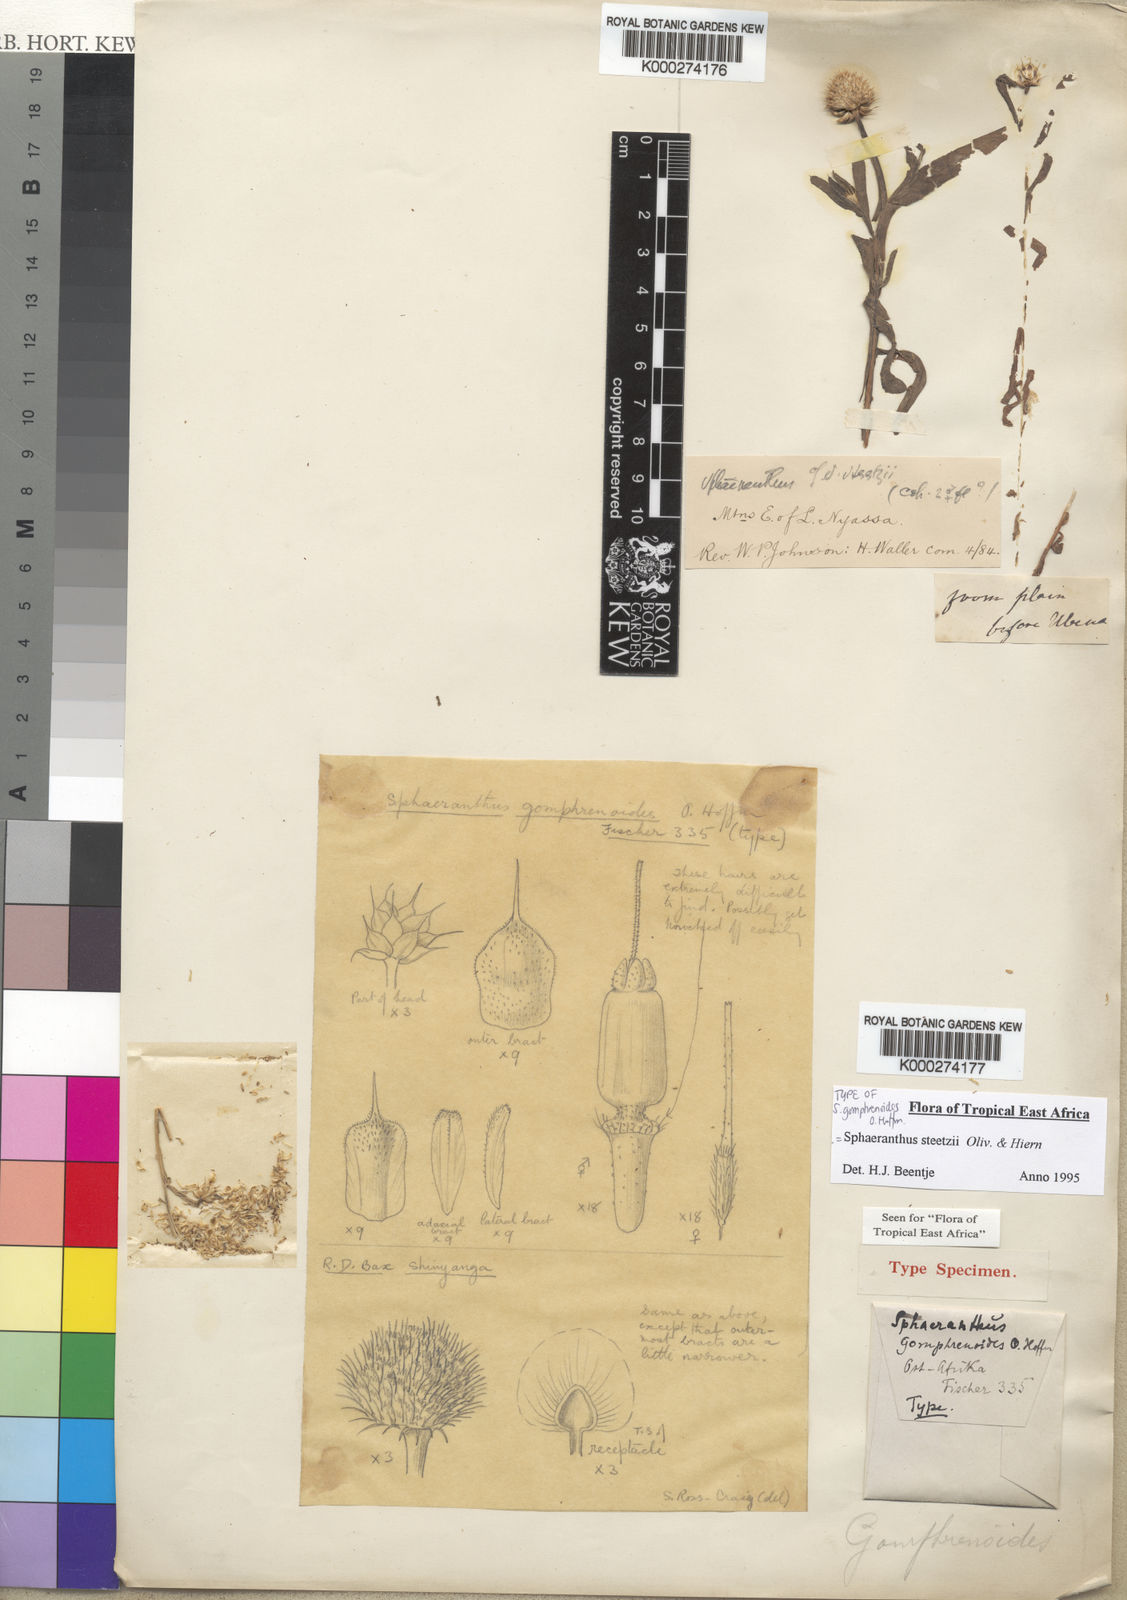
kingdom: Plantae
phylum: Tracheophyta
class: Magnoliopsida
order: Asterales
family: Asteraceae
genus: Sphaeranthus
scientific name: Sphaeranthus steetzii
